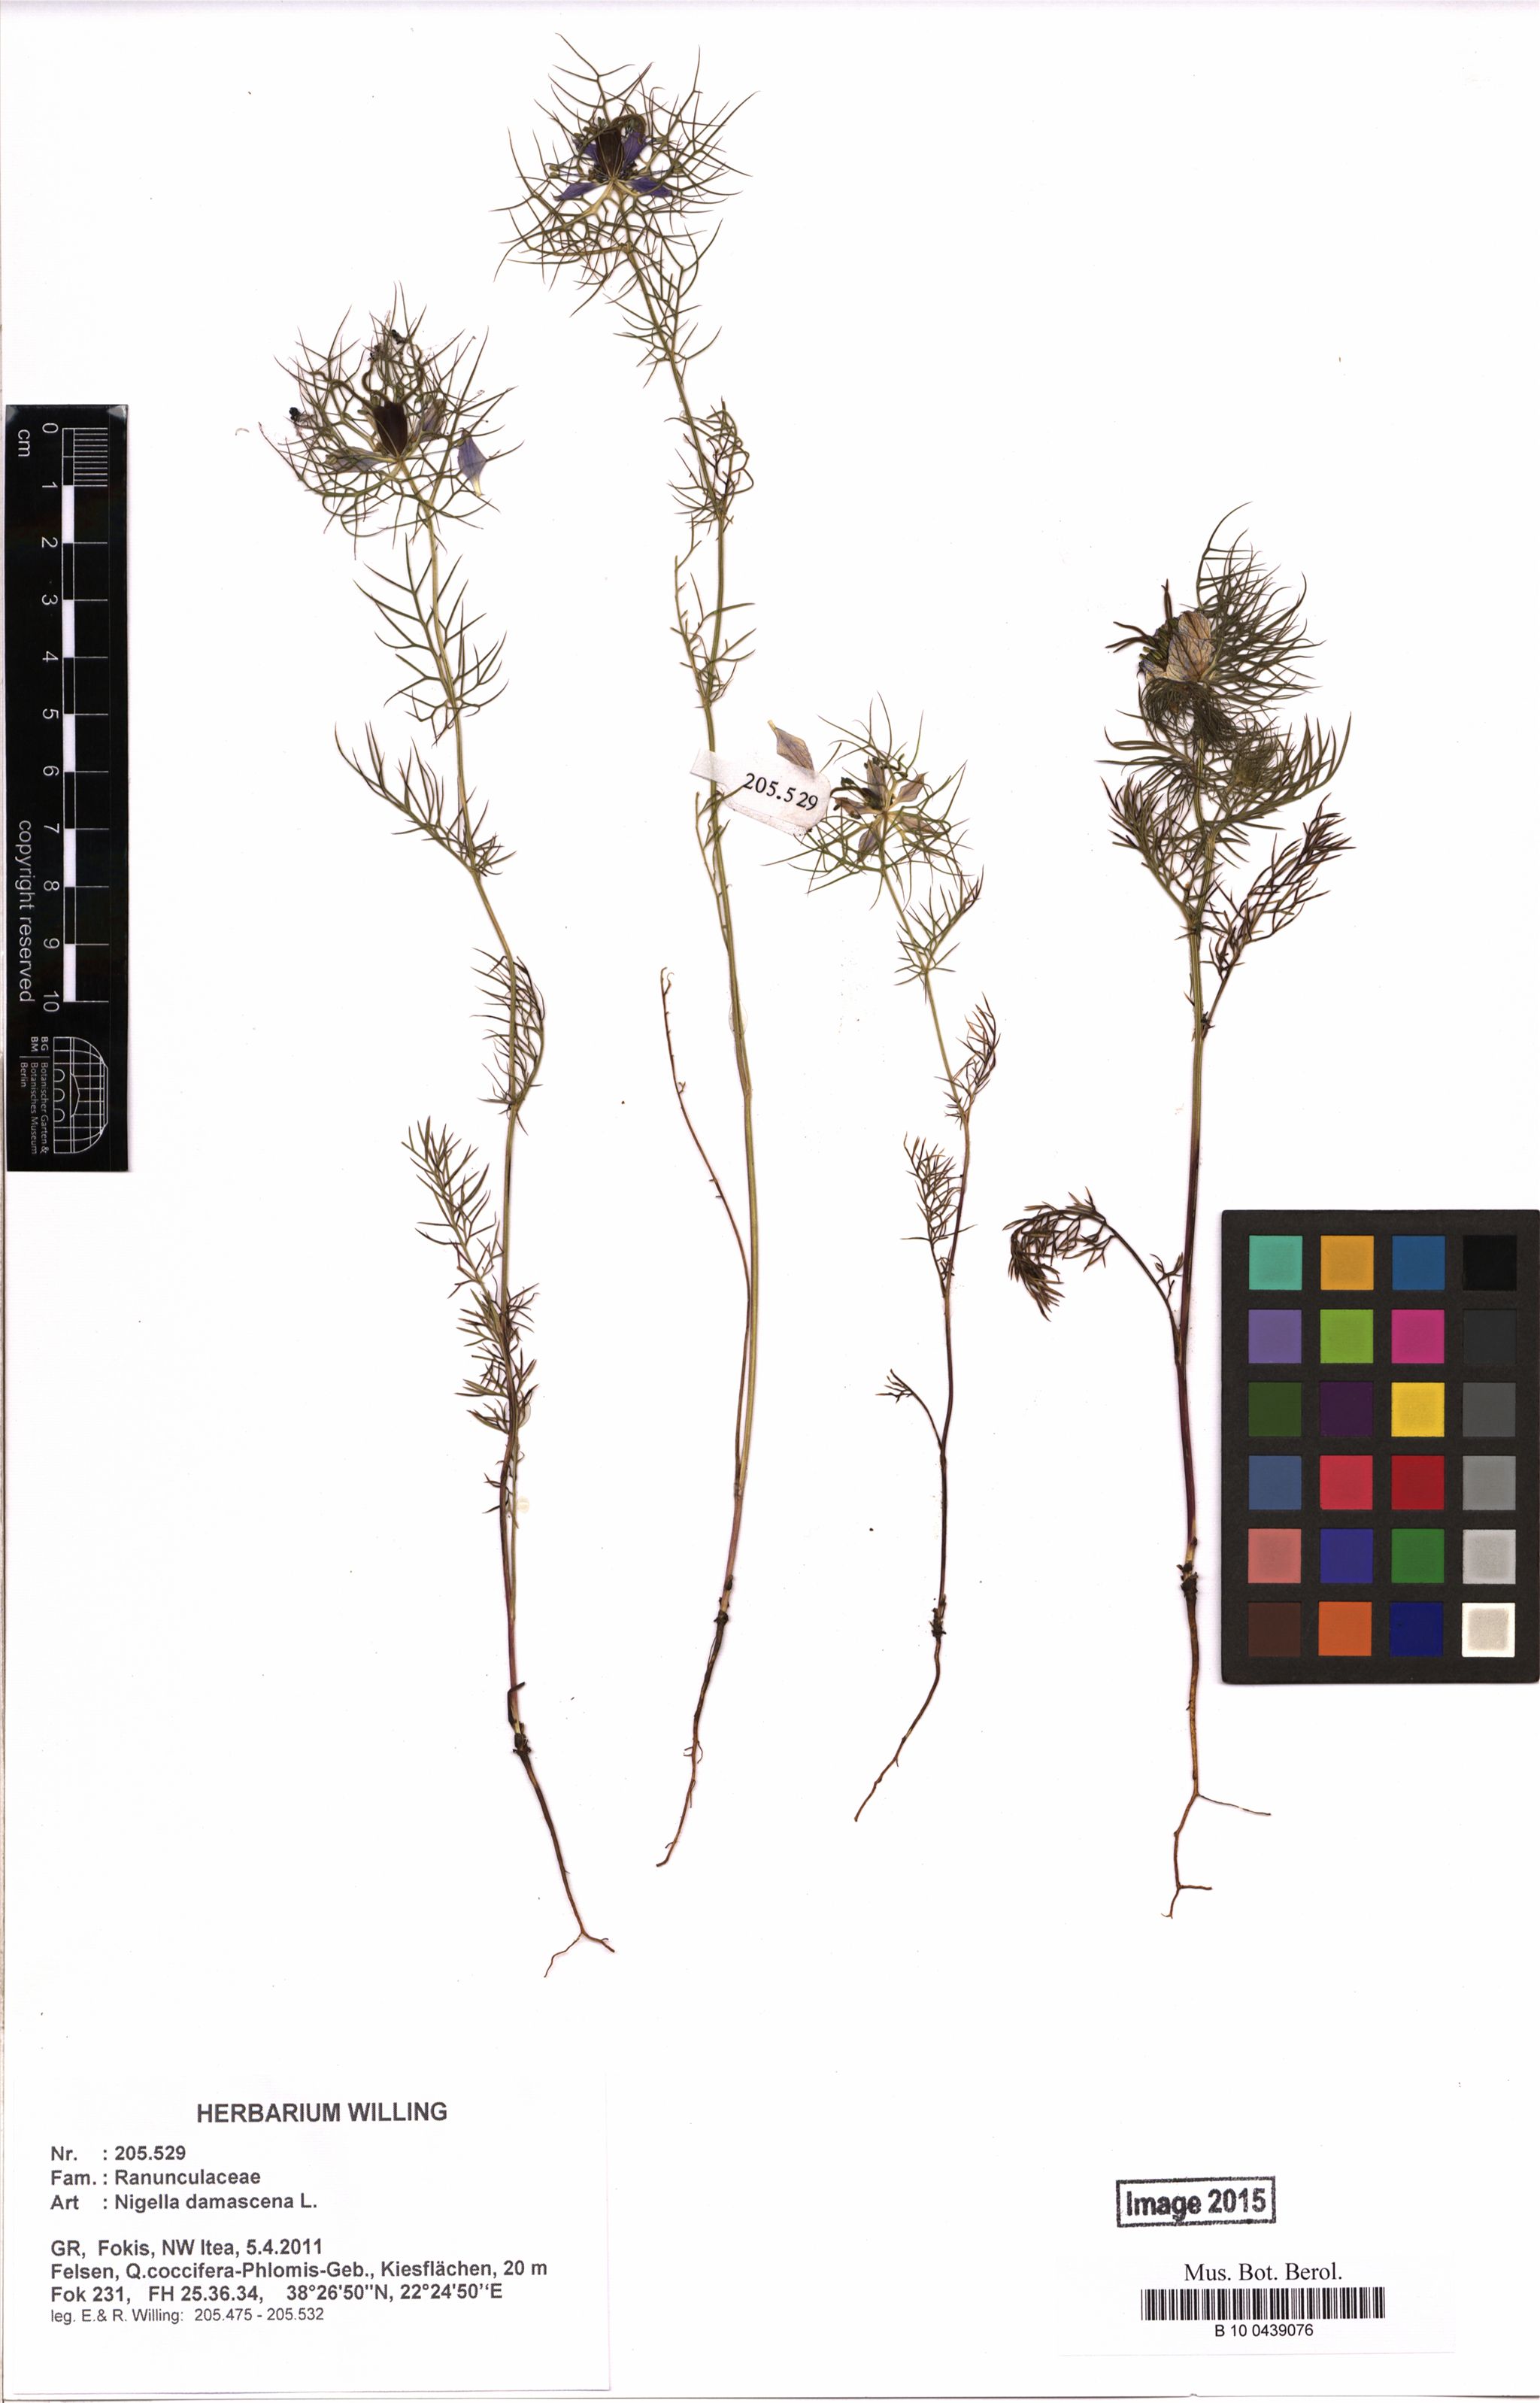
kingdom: Plantae
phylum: Tracheophyta
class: Magnoliopsida
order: Ranunculales
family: Ranunculaceae
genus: Nigella
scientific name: Nigella damascena
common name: Love-in-a-mist
